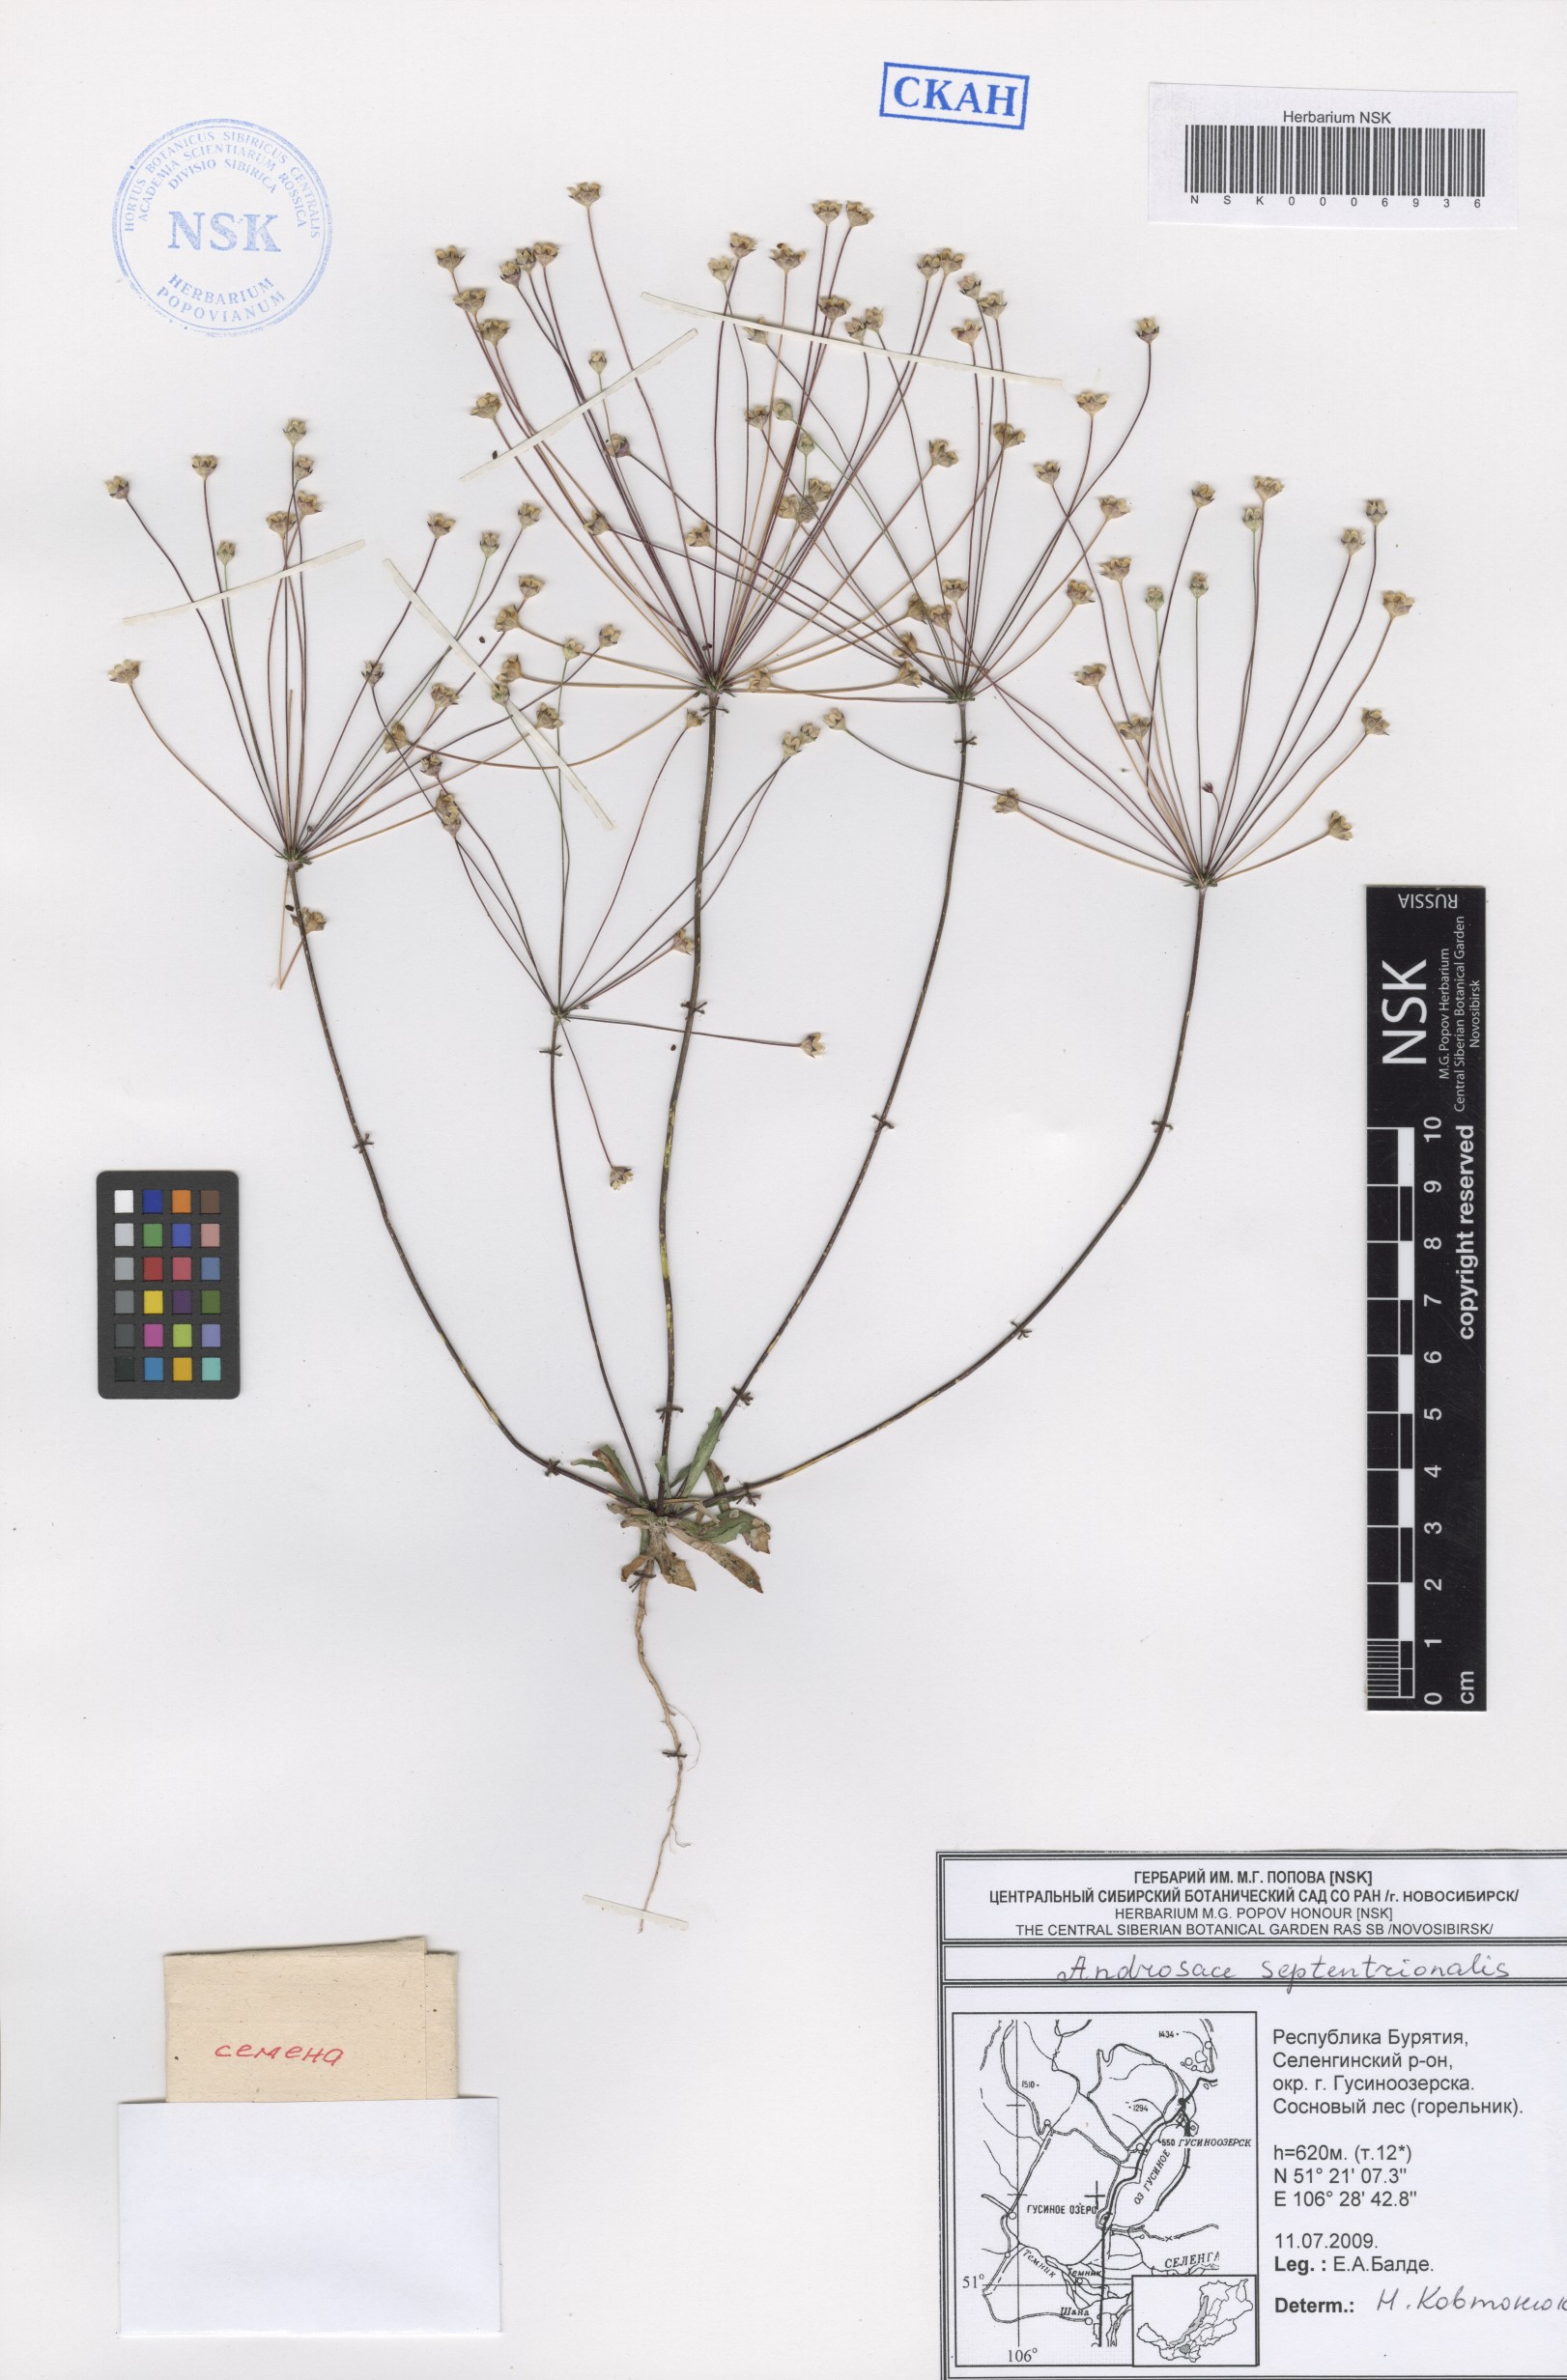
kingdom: Plantae
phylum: Tracheophyta
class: Magnoliopsida
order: Ericales
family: Primulaceae
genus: Androsace
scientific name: Androsace septentrionalis
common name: Hairy northern fairy-candelabra
